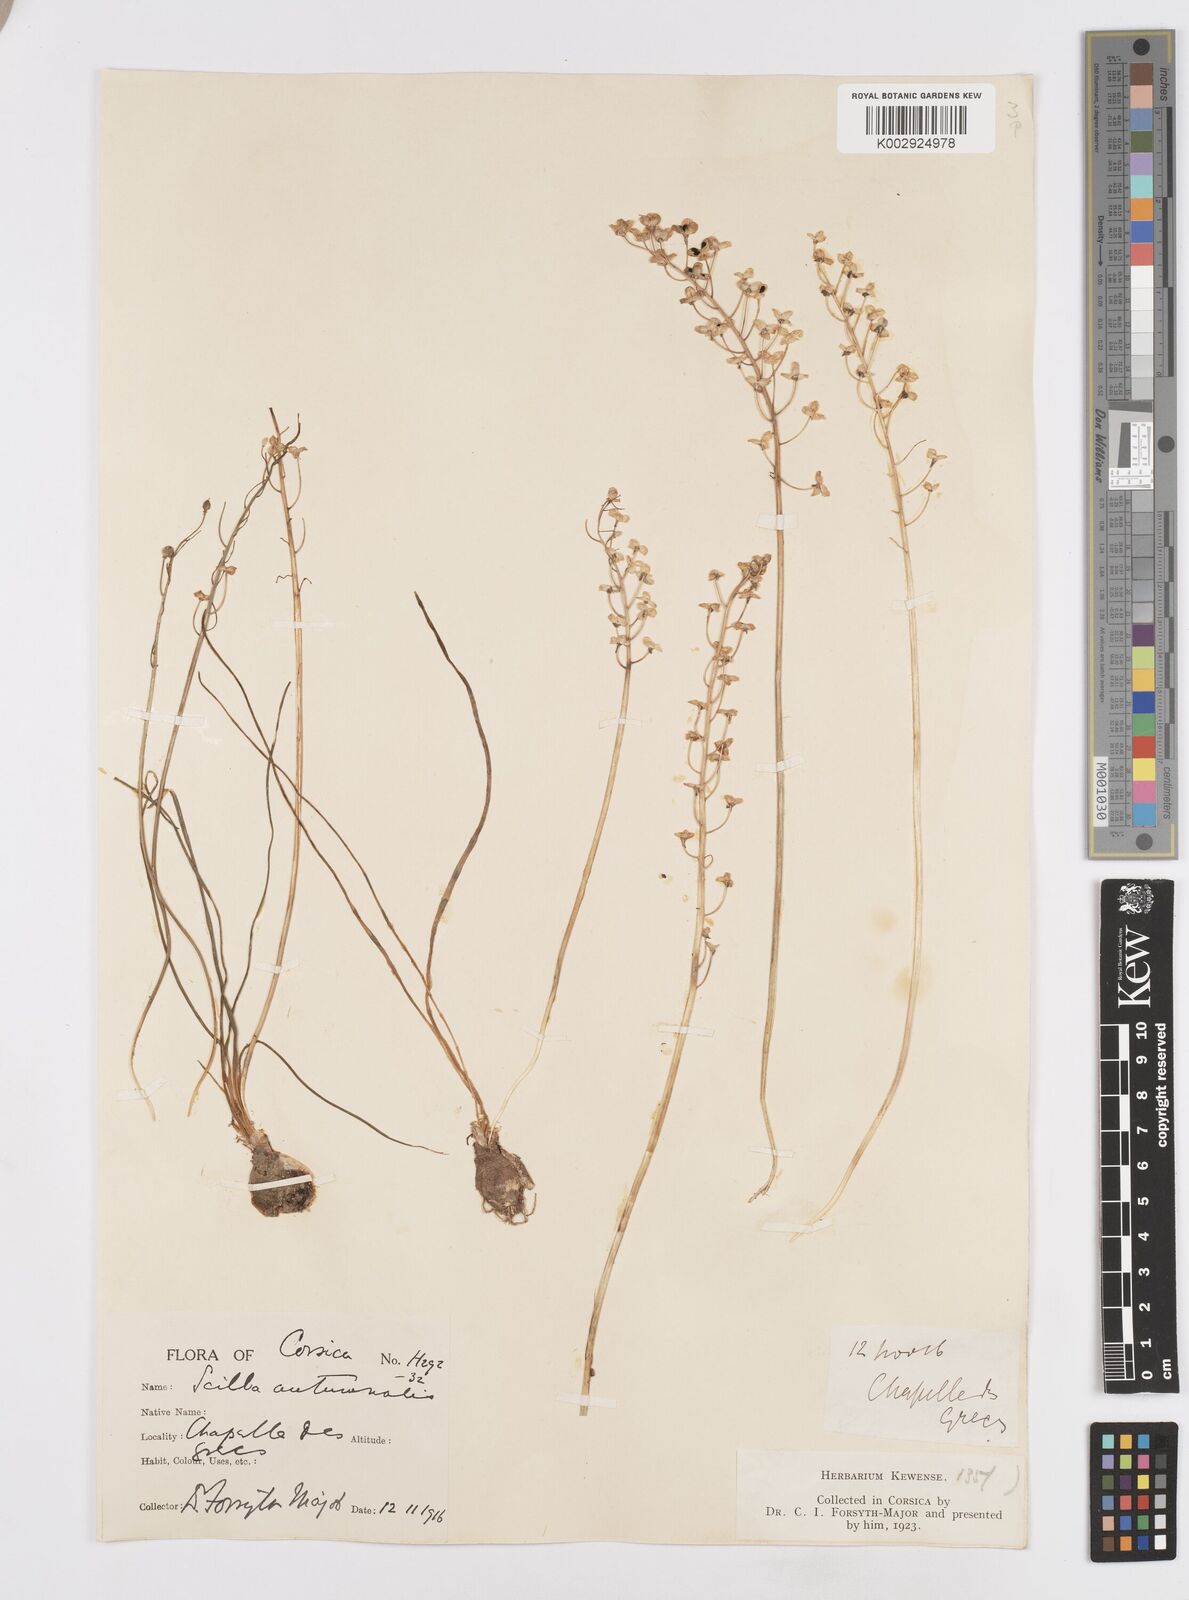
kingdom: Plantae
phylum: Tracheophyta
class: Liliopsida
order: Asparagales
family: Asparagaceae
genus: Prospero
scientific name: Prospero autumnale
